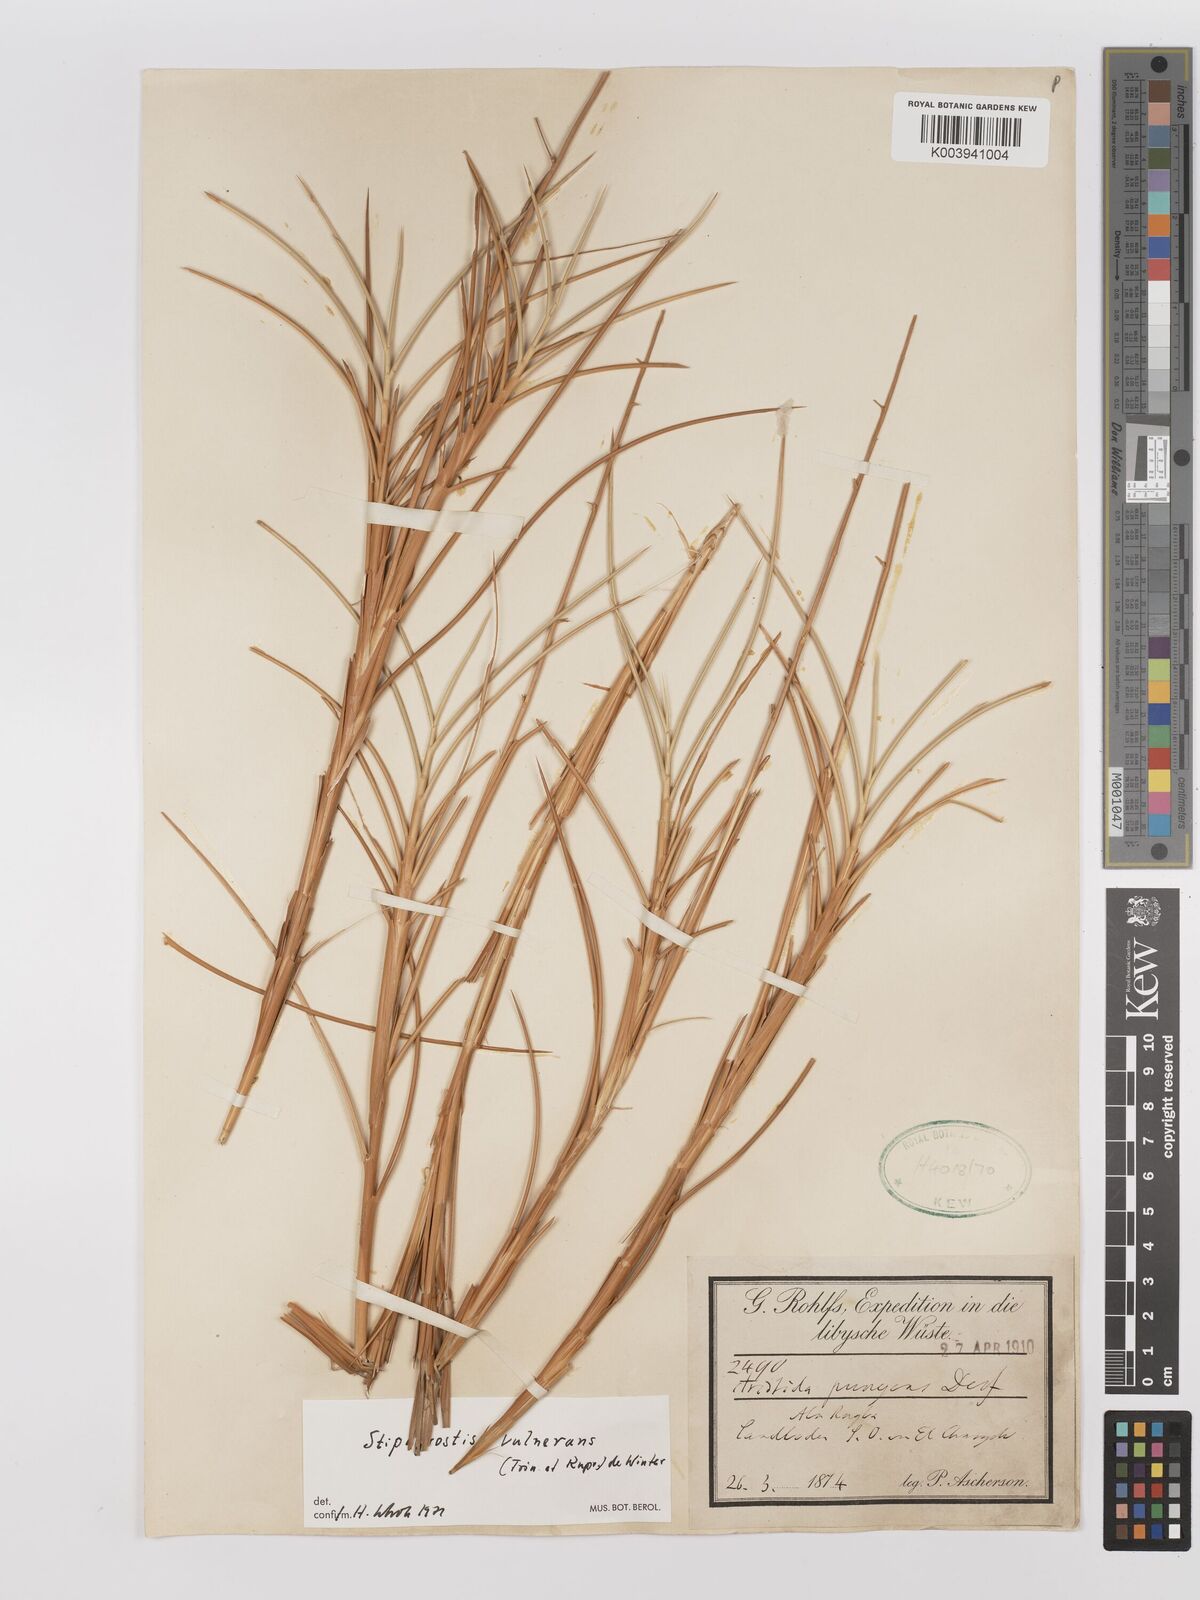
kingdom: Plantae
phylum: Tracheophyta
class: Liliopsida
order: Poales
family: Poaceae
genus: Stipagrostis
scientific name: Stipagrostis vulnerans
